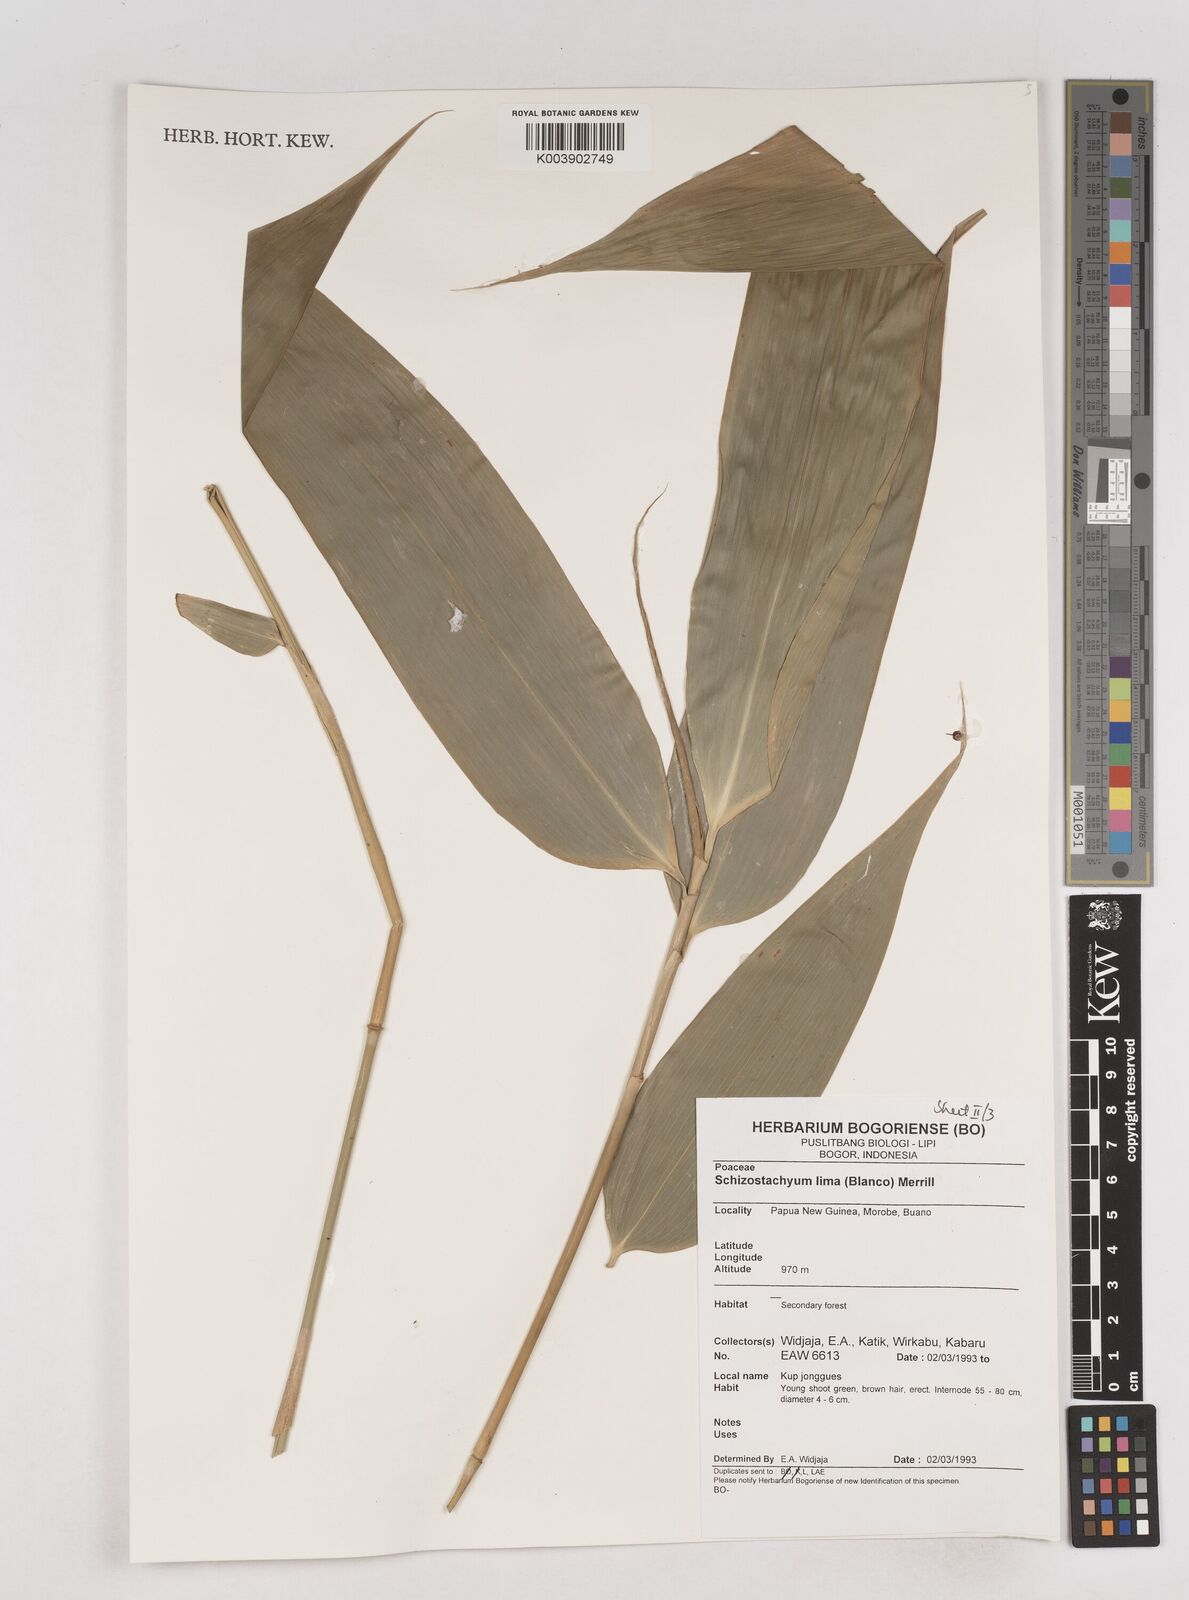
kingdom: Plantae
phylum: Tracheophyta
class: Liliopsida
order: Poales
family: Poaceae
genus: Schizostachyum
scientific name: Schizostachyum lima
